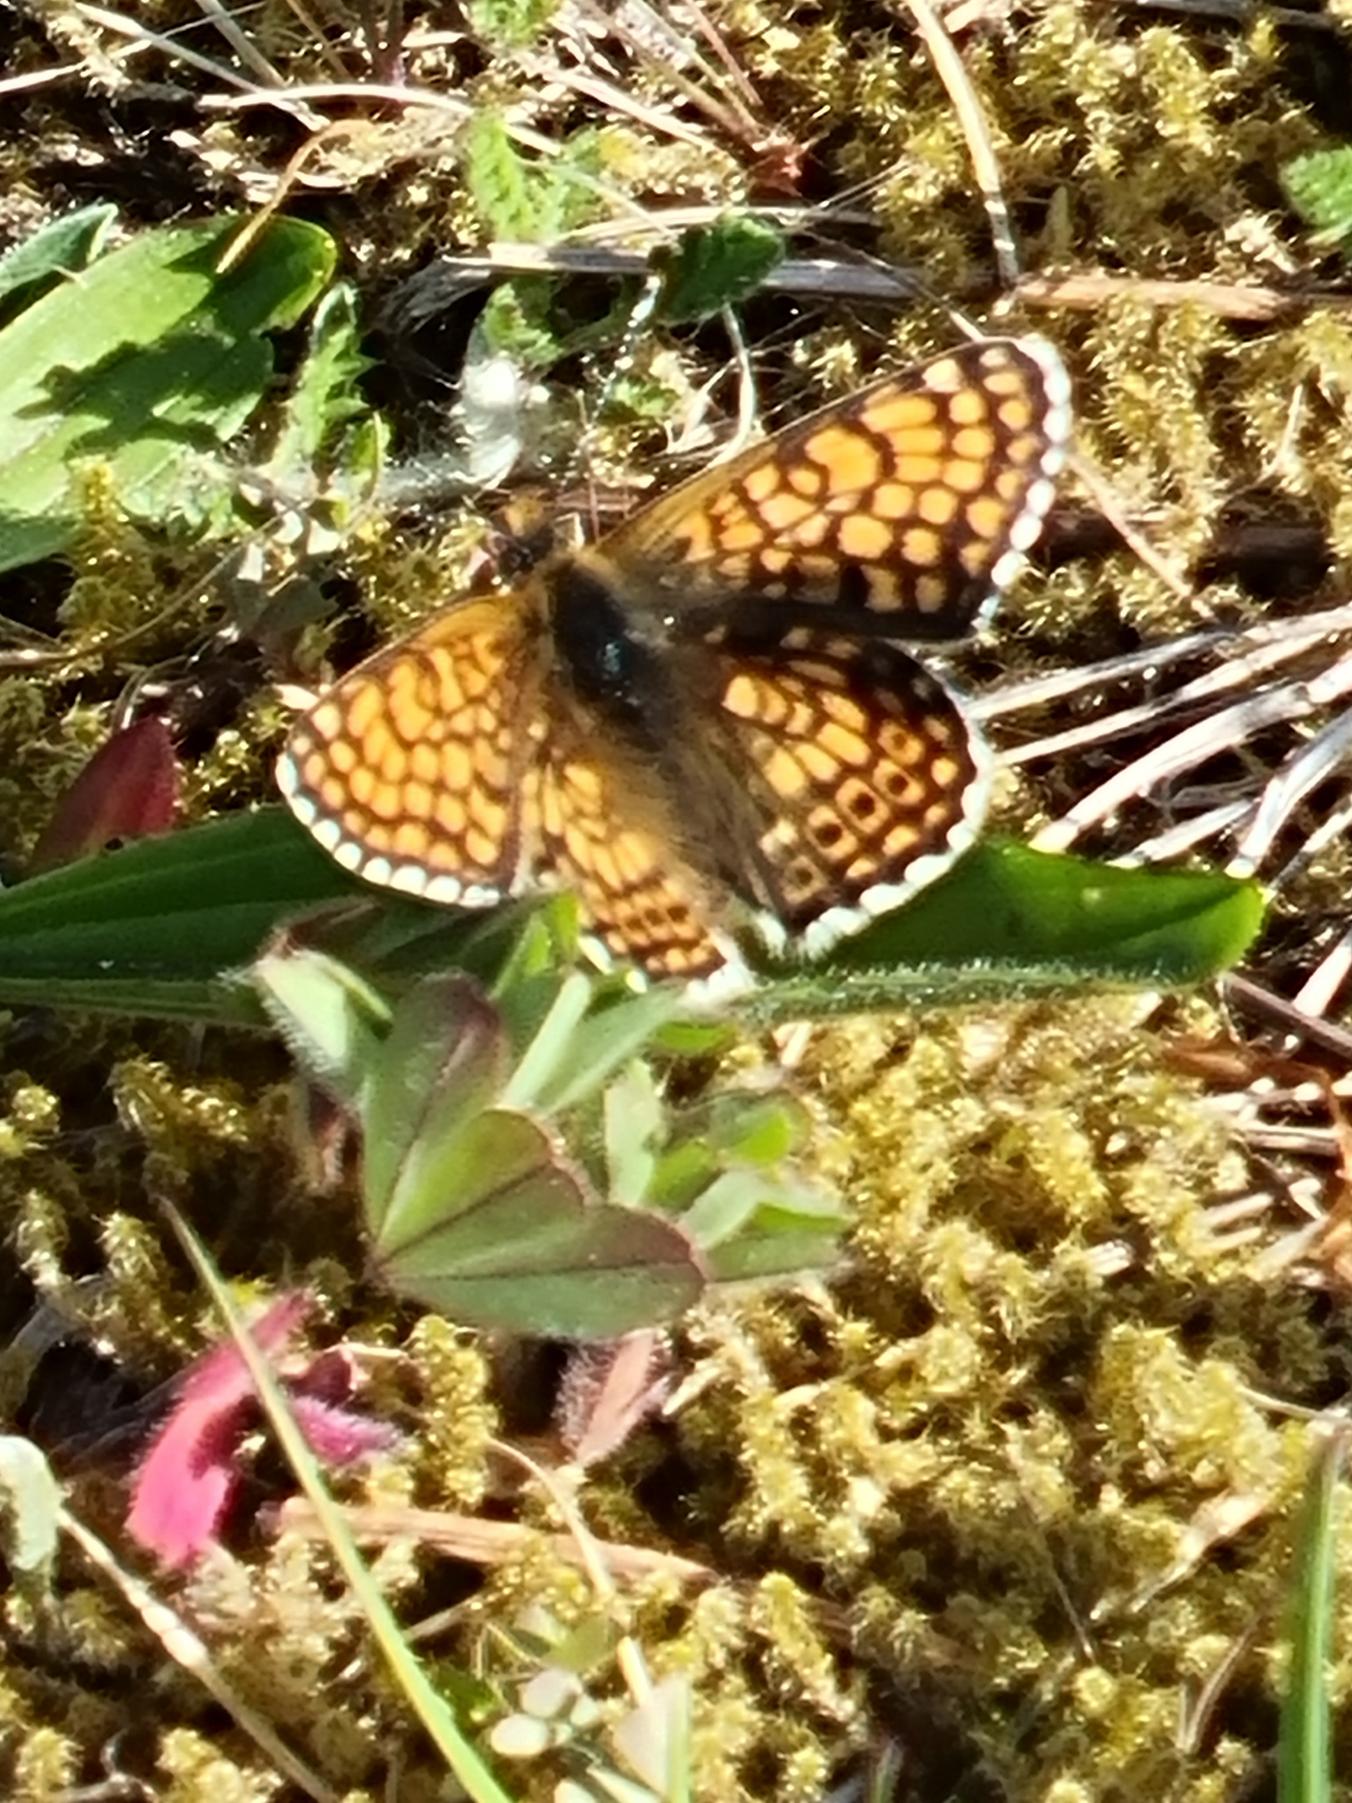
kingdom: Animalia
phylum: Arthropoda
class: Insecta
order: Lepidoptera
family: Nymphalidae
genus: Melitaea
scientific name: Melitaea cinxia
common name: Okkergul pletvinge
